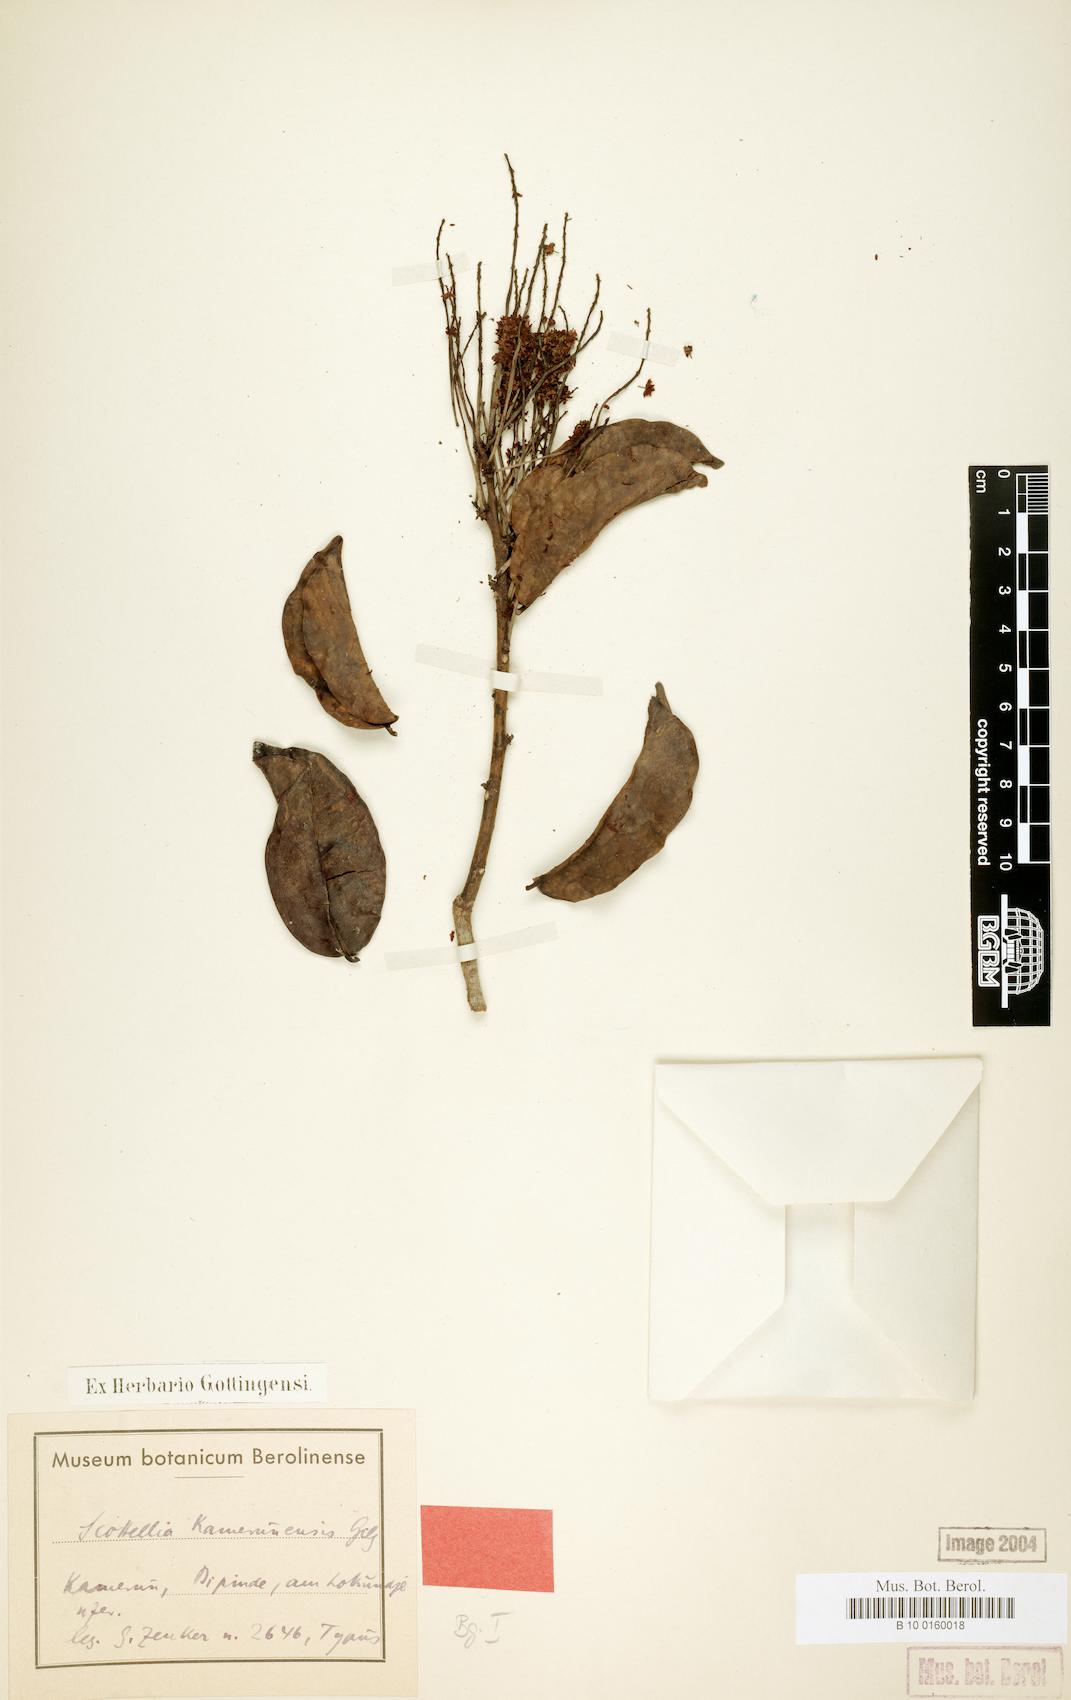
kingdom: Plantae
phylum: Tracheophyta
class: Magnoliopsida
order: Malpighiales
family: Achariaceae
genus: Scottellia
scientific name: Scottellia klaineana
